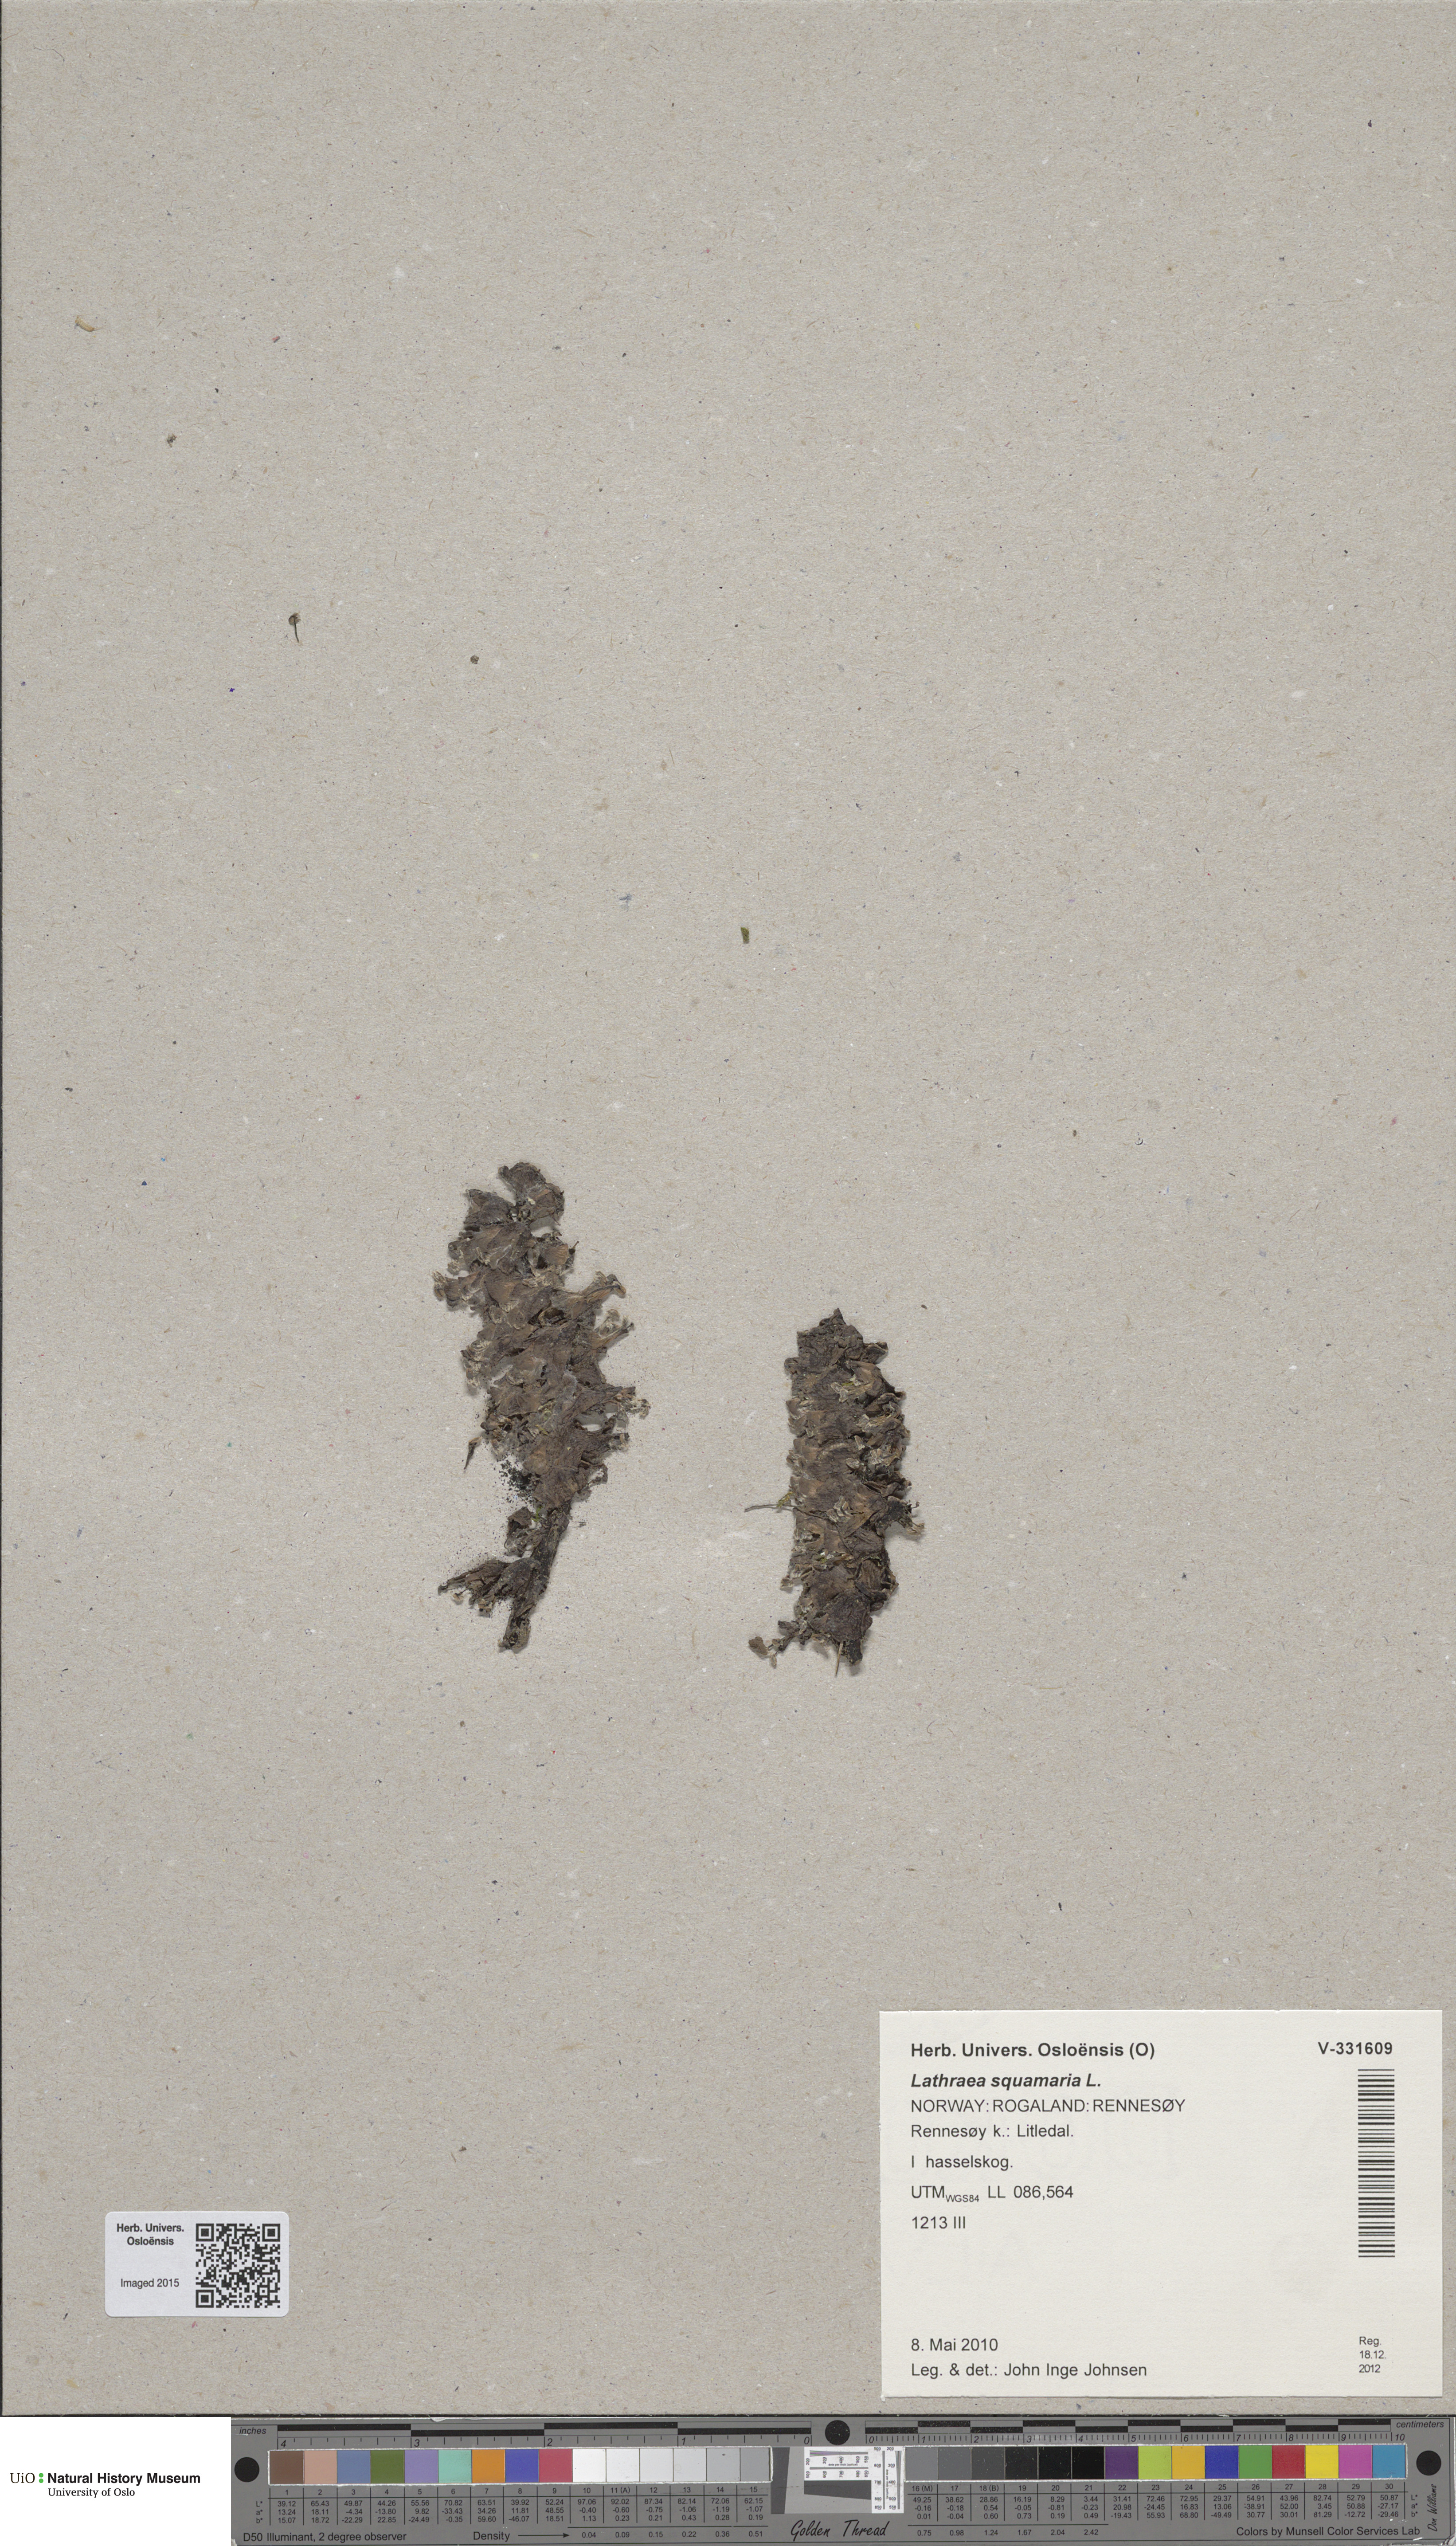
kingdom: Plantae
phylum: Tracheophyta
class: Magnoliopsida
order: Lamiales
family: Orobanchaceae
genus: Lathraea
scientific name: Lathraea squamaria
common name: Toothwort
